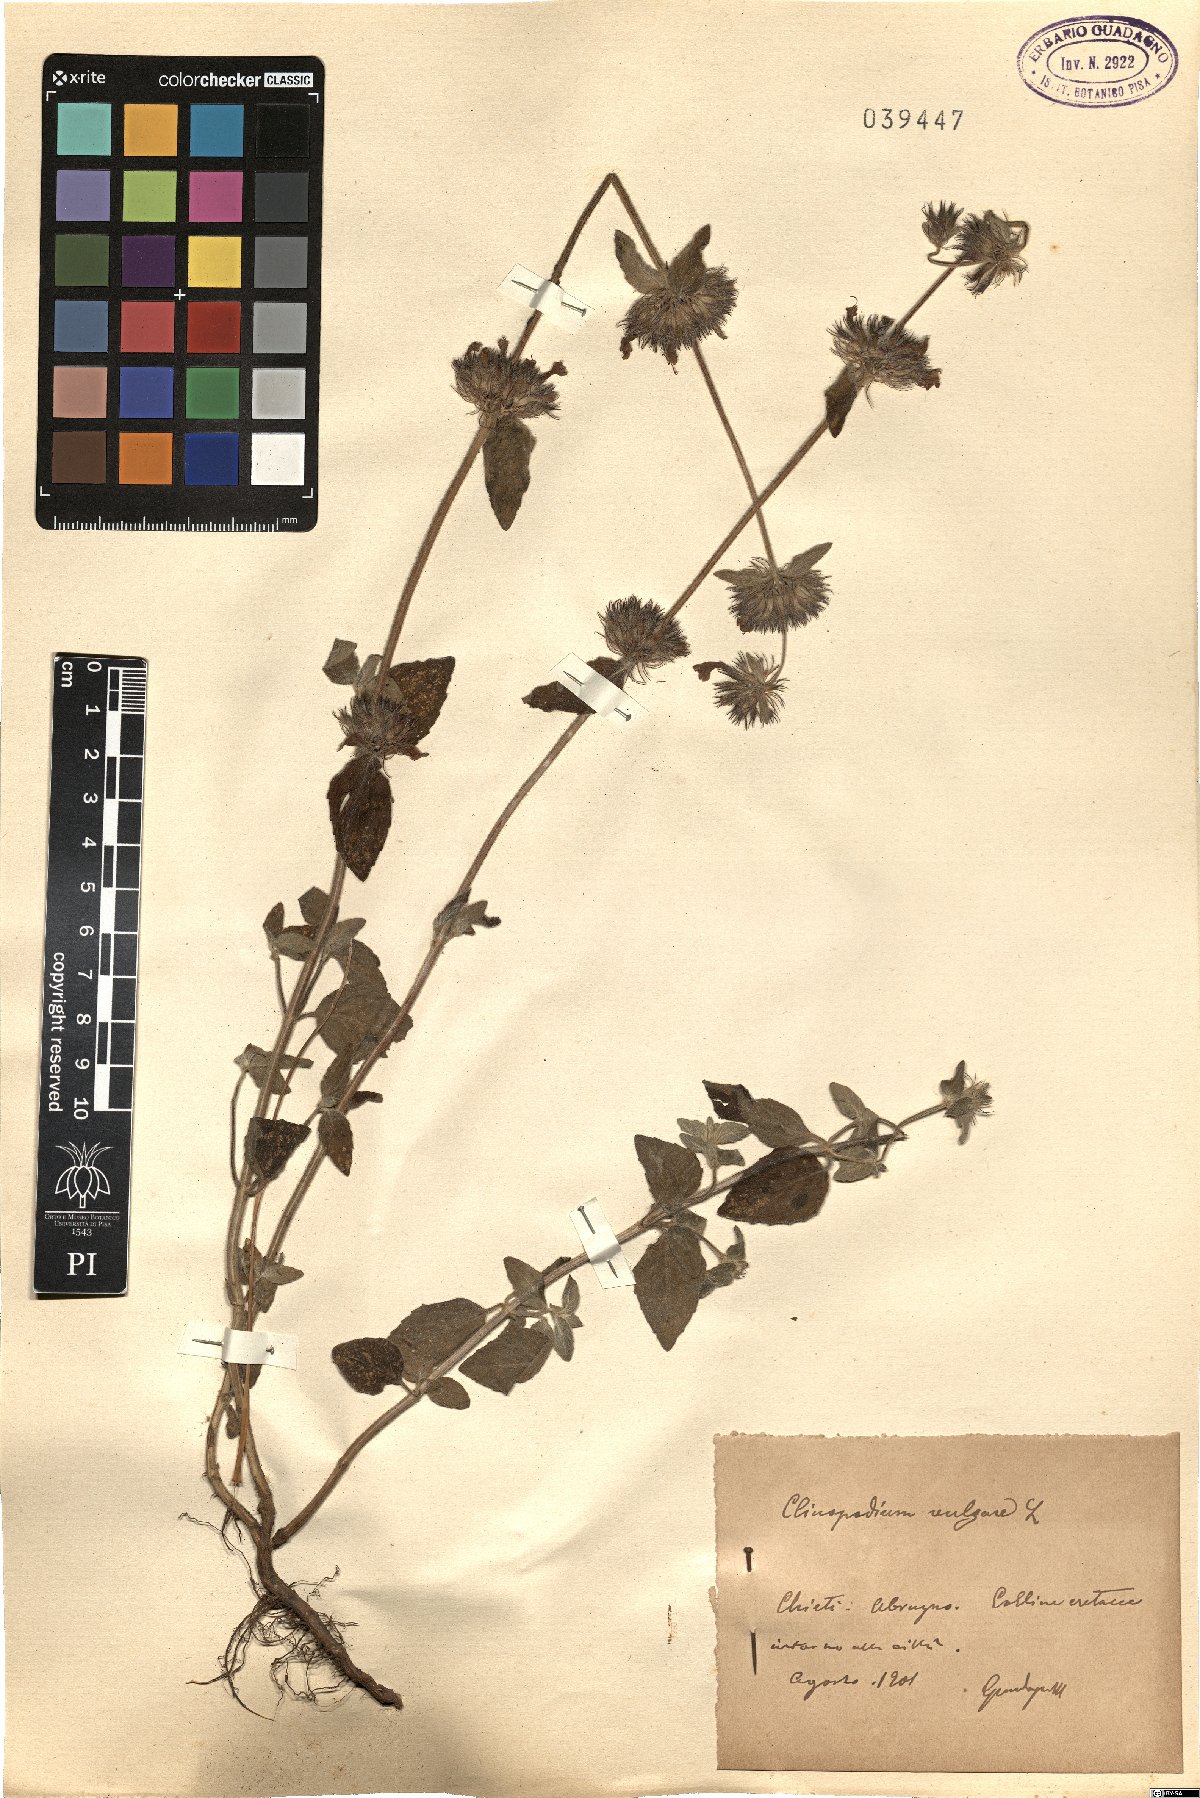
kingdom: Plantae
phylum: Tracheophyta
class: Magnoliopsida
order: Lamiales
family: Lamiaceae
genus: Clinopodium
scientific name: Clinopodium vulgare
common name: Wild basil
